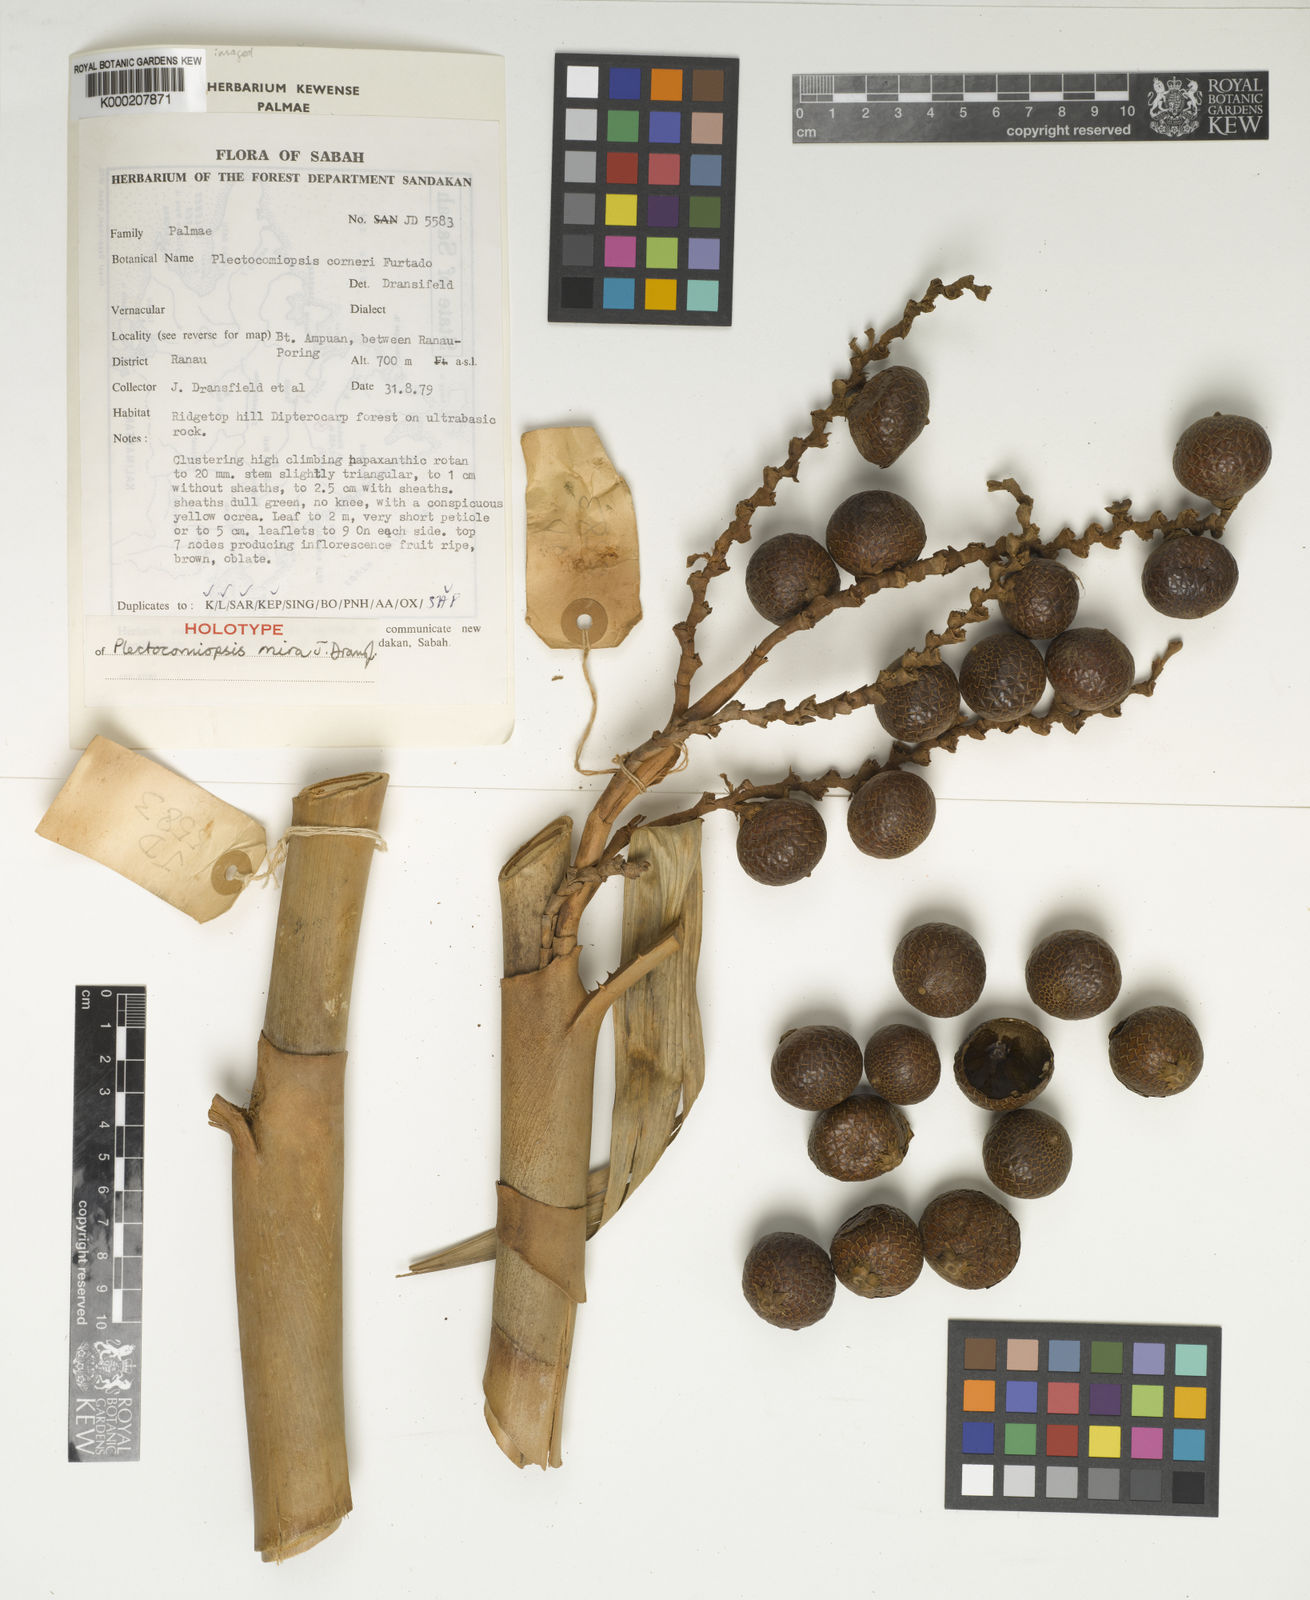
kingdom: Plantae
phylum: Tracheophyta
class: Liliopsida
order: Arecales
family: Arecaceae
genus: Plectocomiopsis
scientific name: Plectocomiopsis mira
